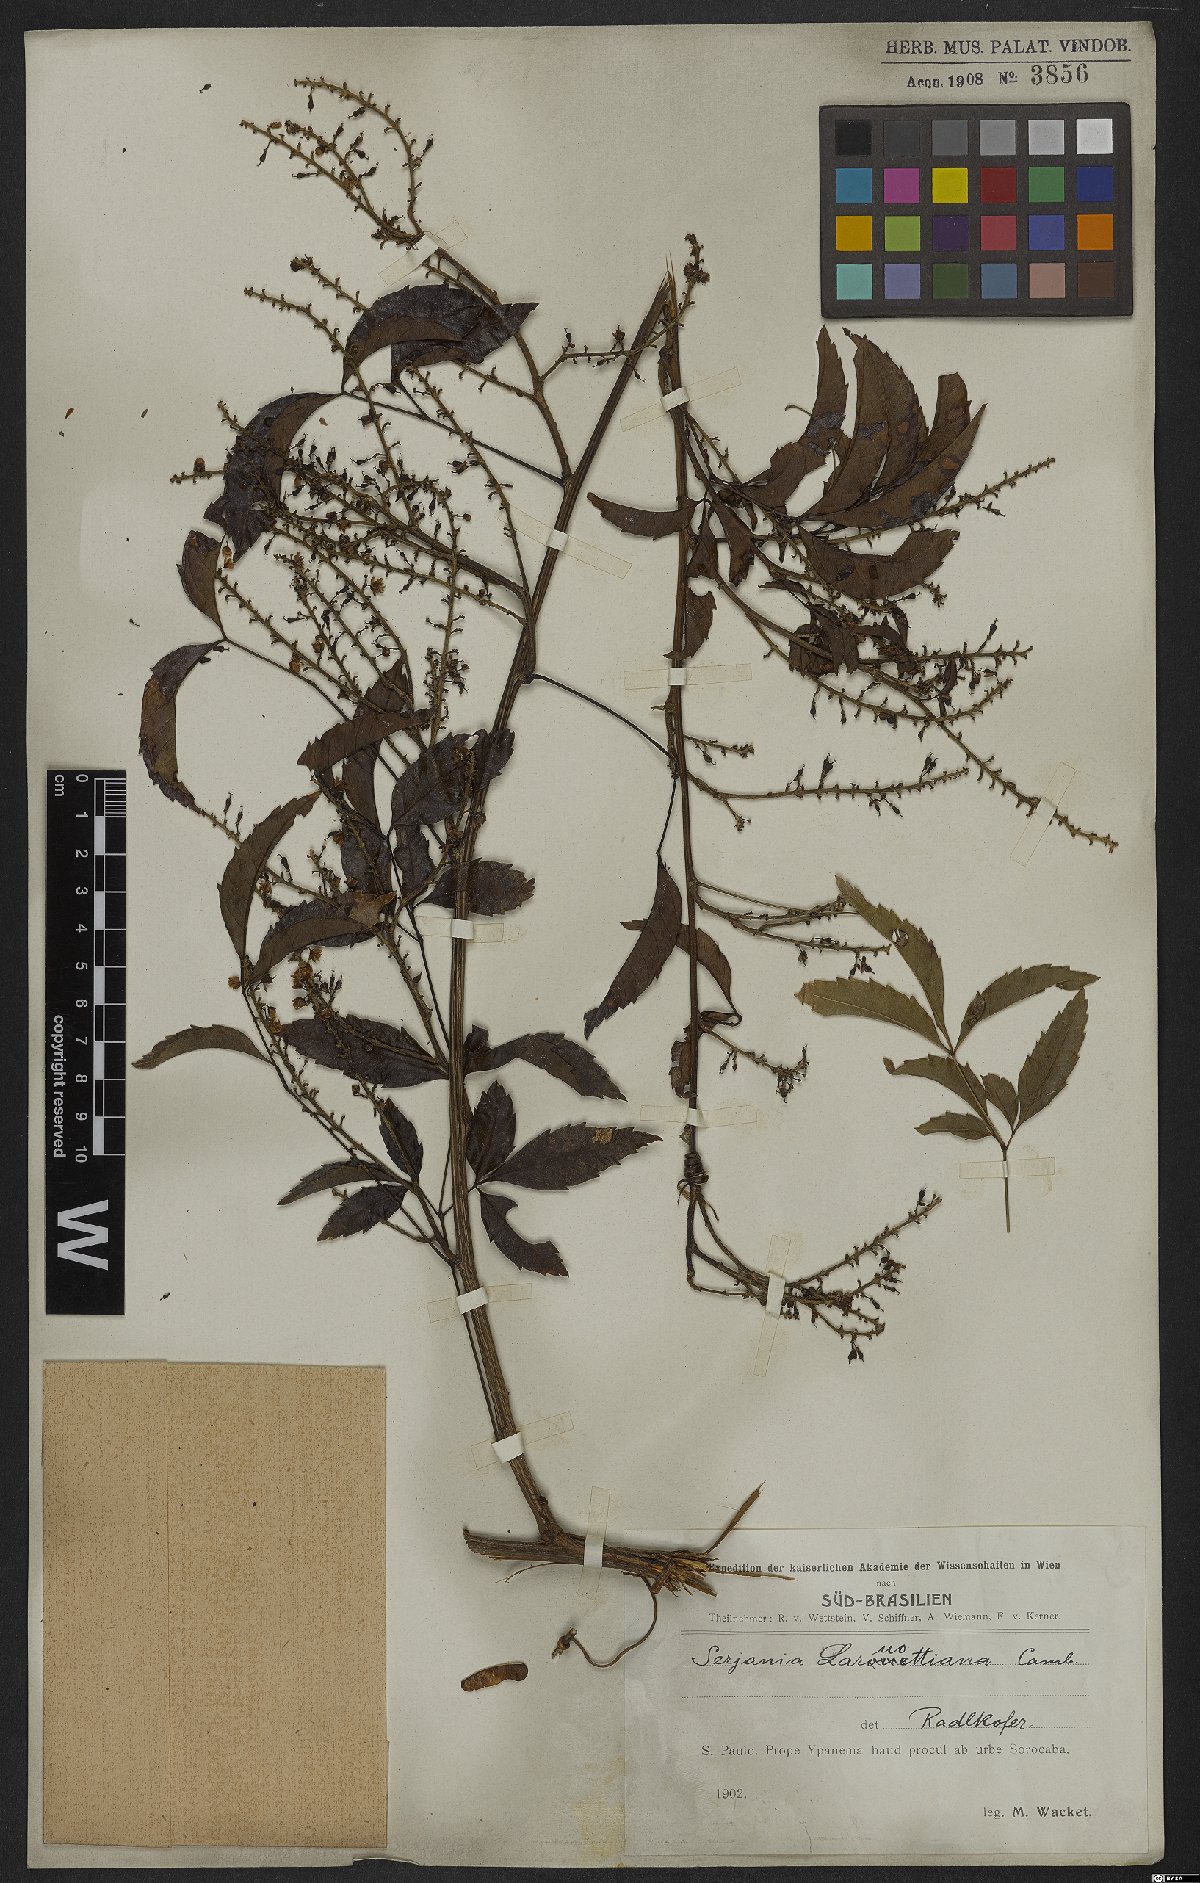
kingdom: Plantae
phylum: Tracheophyta
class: Magnoliopsida
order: Sapindales
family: Sapindaceae
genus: Serjania
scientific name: Serjania laruotteana
